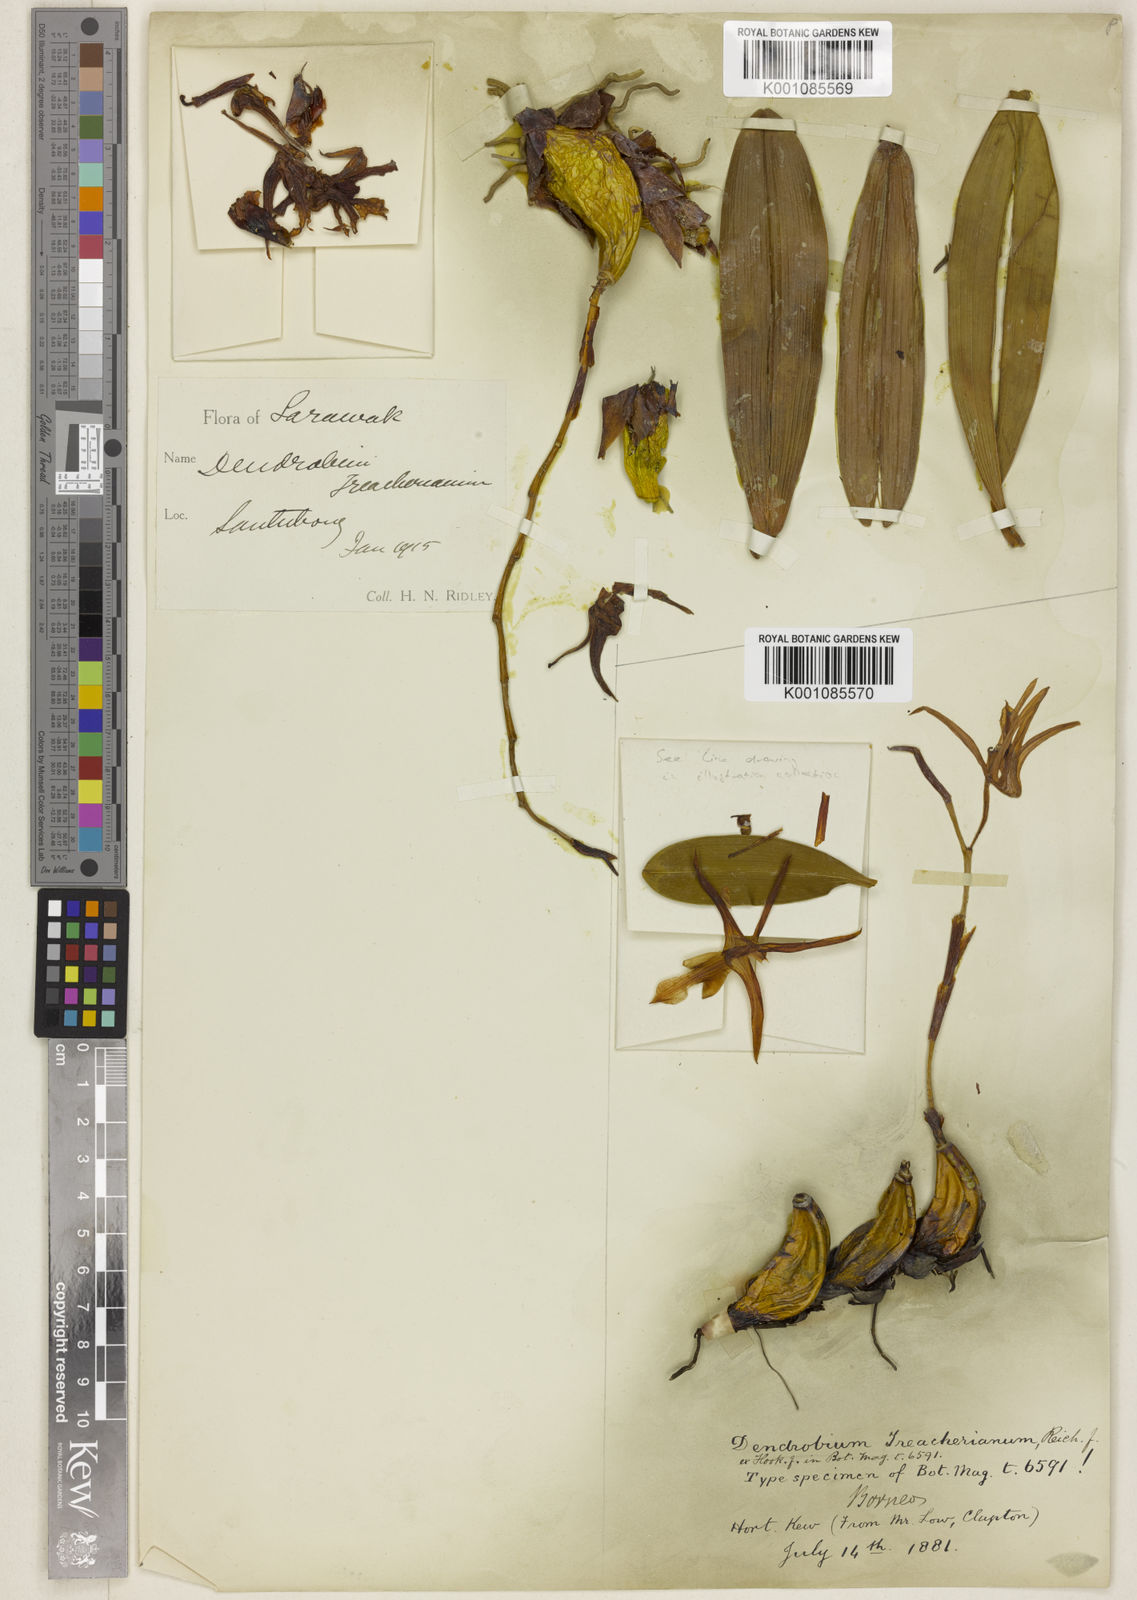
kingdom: Plantae
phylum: Tracheophyta
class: Liliopsida
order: Asparagales
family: Orchidaceae
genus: Dendrobium
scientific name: Dendrobium treacherianum
